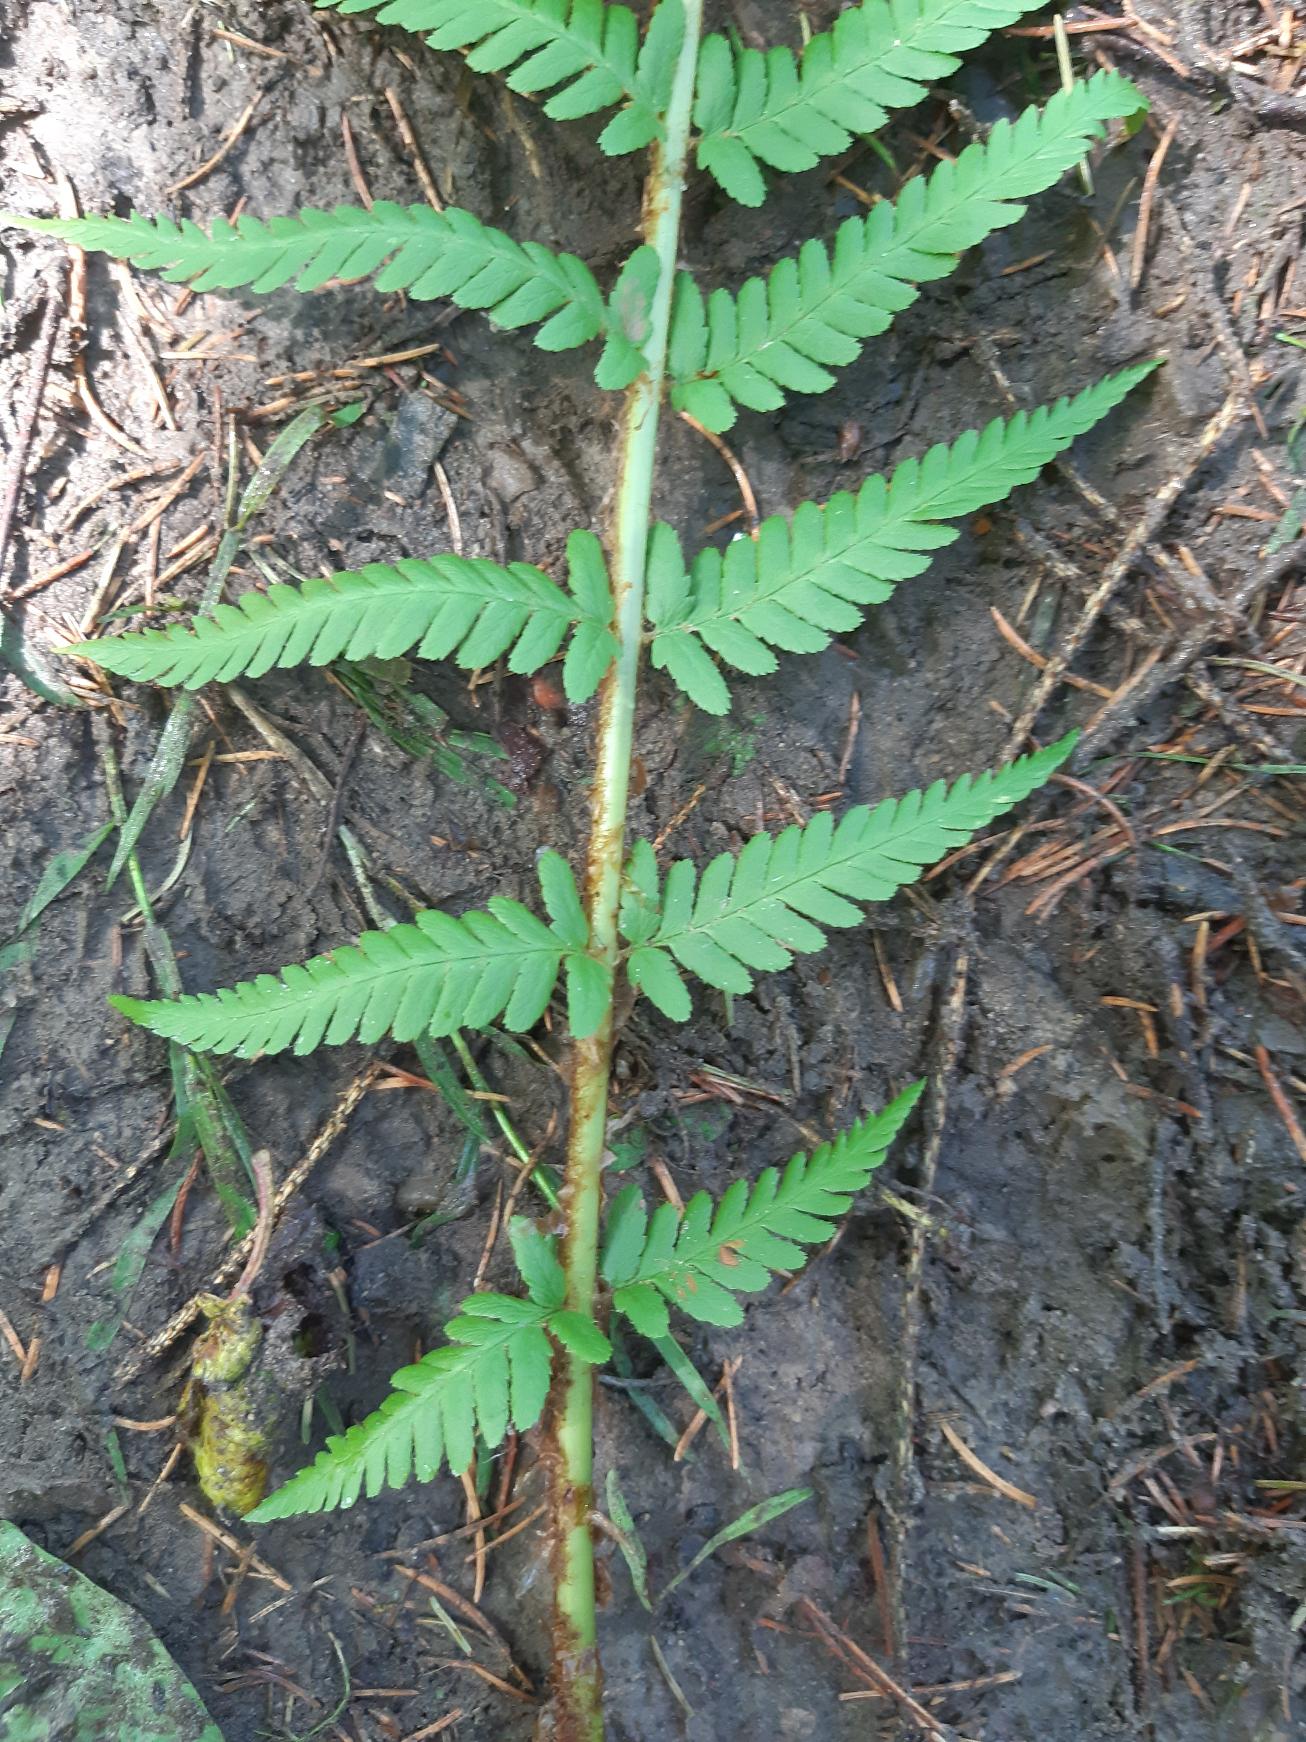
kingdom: Plantae
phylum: Tracheophyta
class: Polypodiopsida
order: Polypodiales
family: Dryopteridaceae
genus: Dryopteris
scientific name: Dryopteris filix-mas
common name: Almindelig mangeløv
